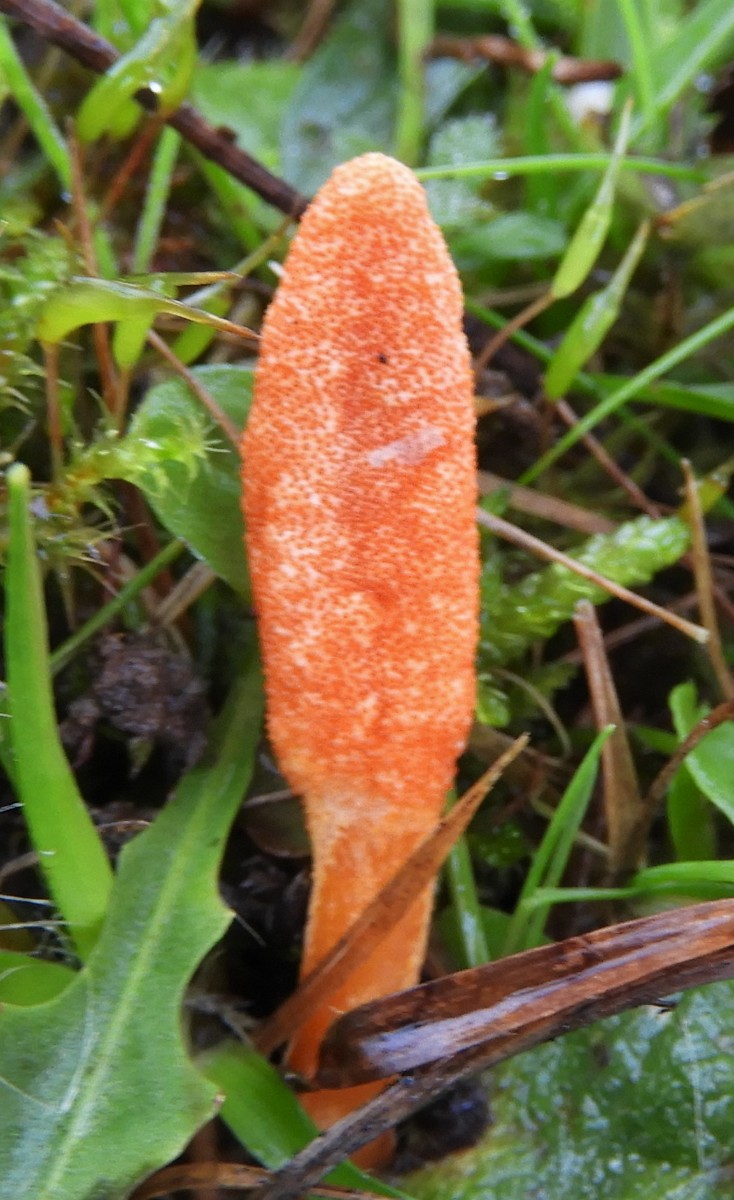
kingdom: Fungi
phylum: Ascomycota
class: Sordariomycetes
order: Hypocreales
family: Cordycipitaceae
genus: Cordyceps
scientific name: Cordyceps militaris
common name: puppe-snyltekølle
